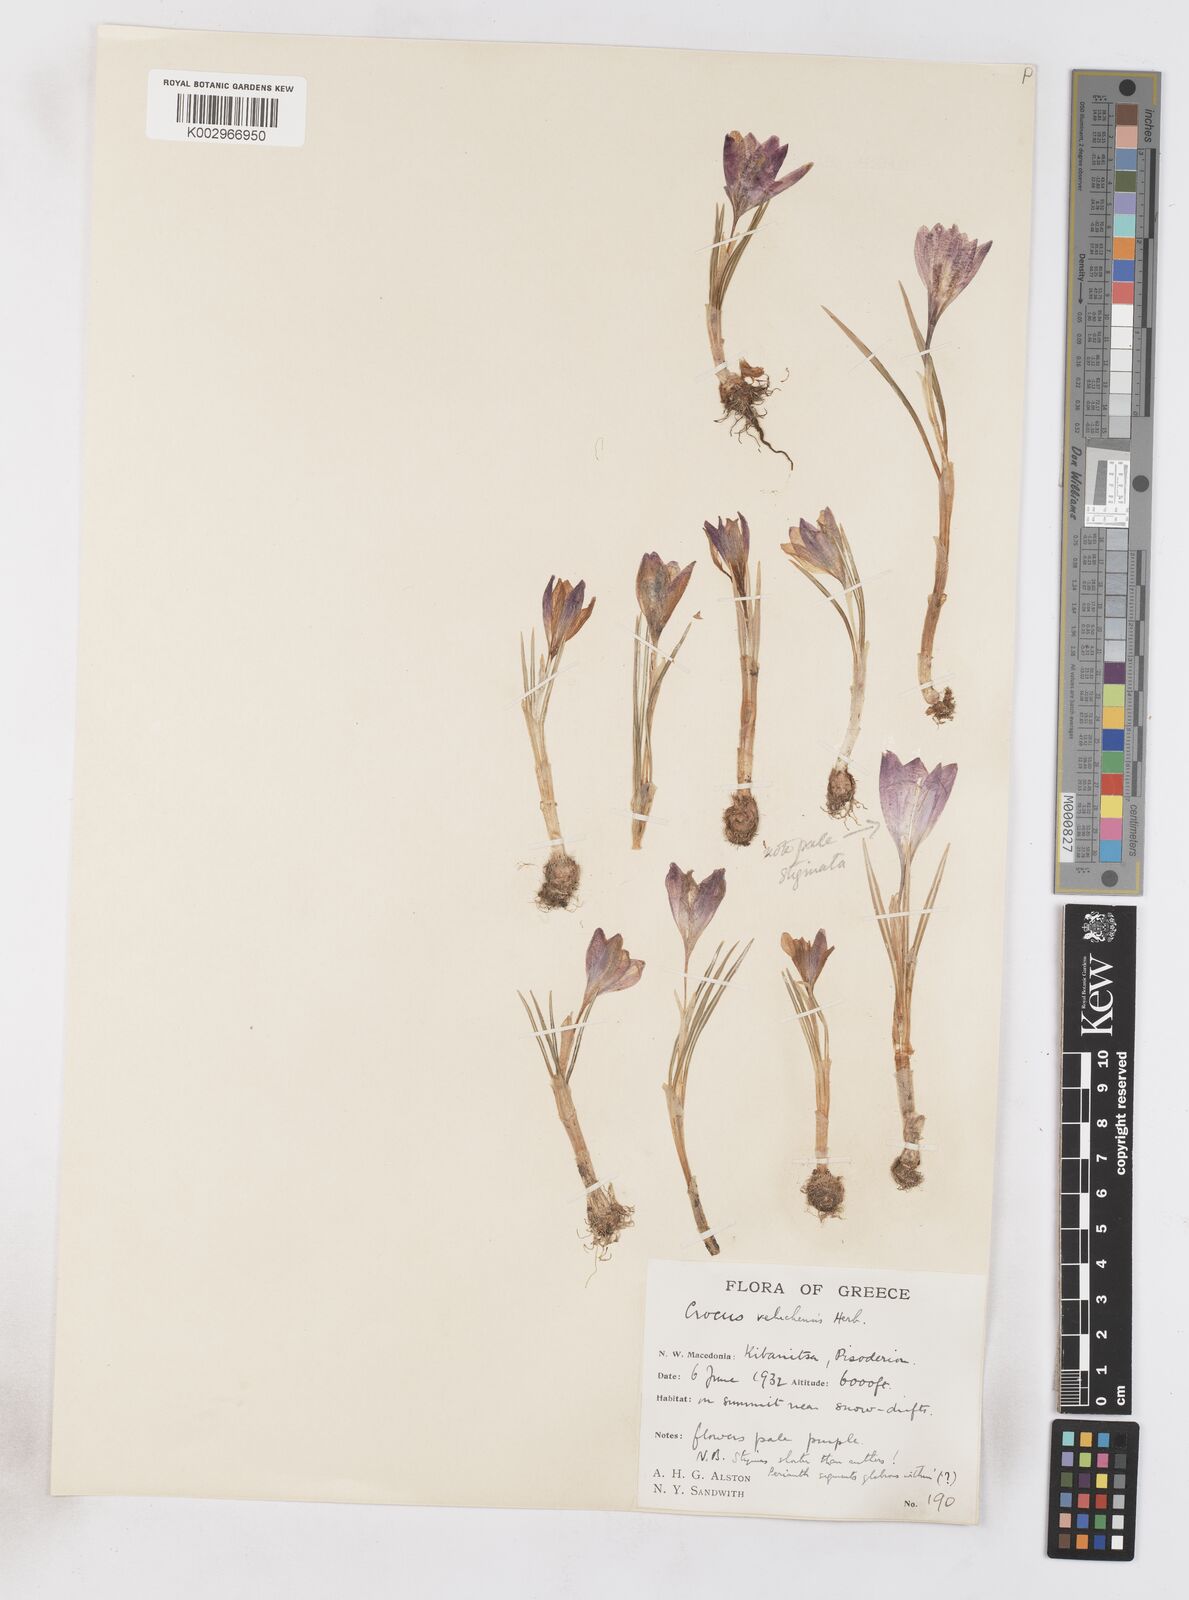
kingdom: Plantae
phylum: Tracheophyta
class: Liliopsida
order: Asparagales
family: Iridaceae
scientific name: Iridaceae
